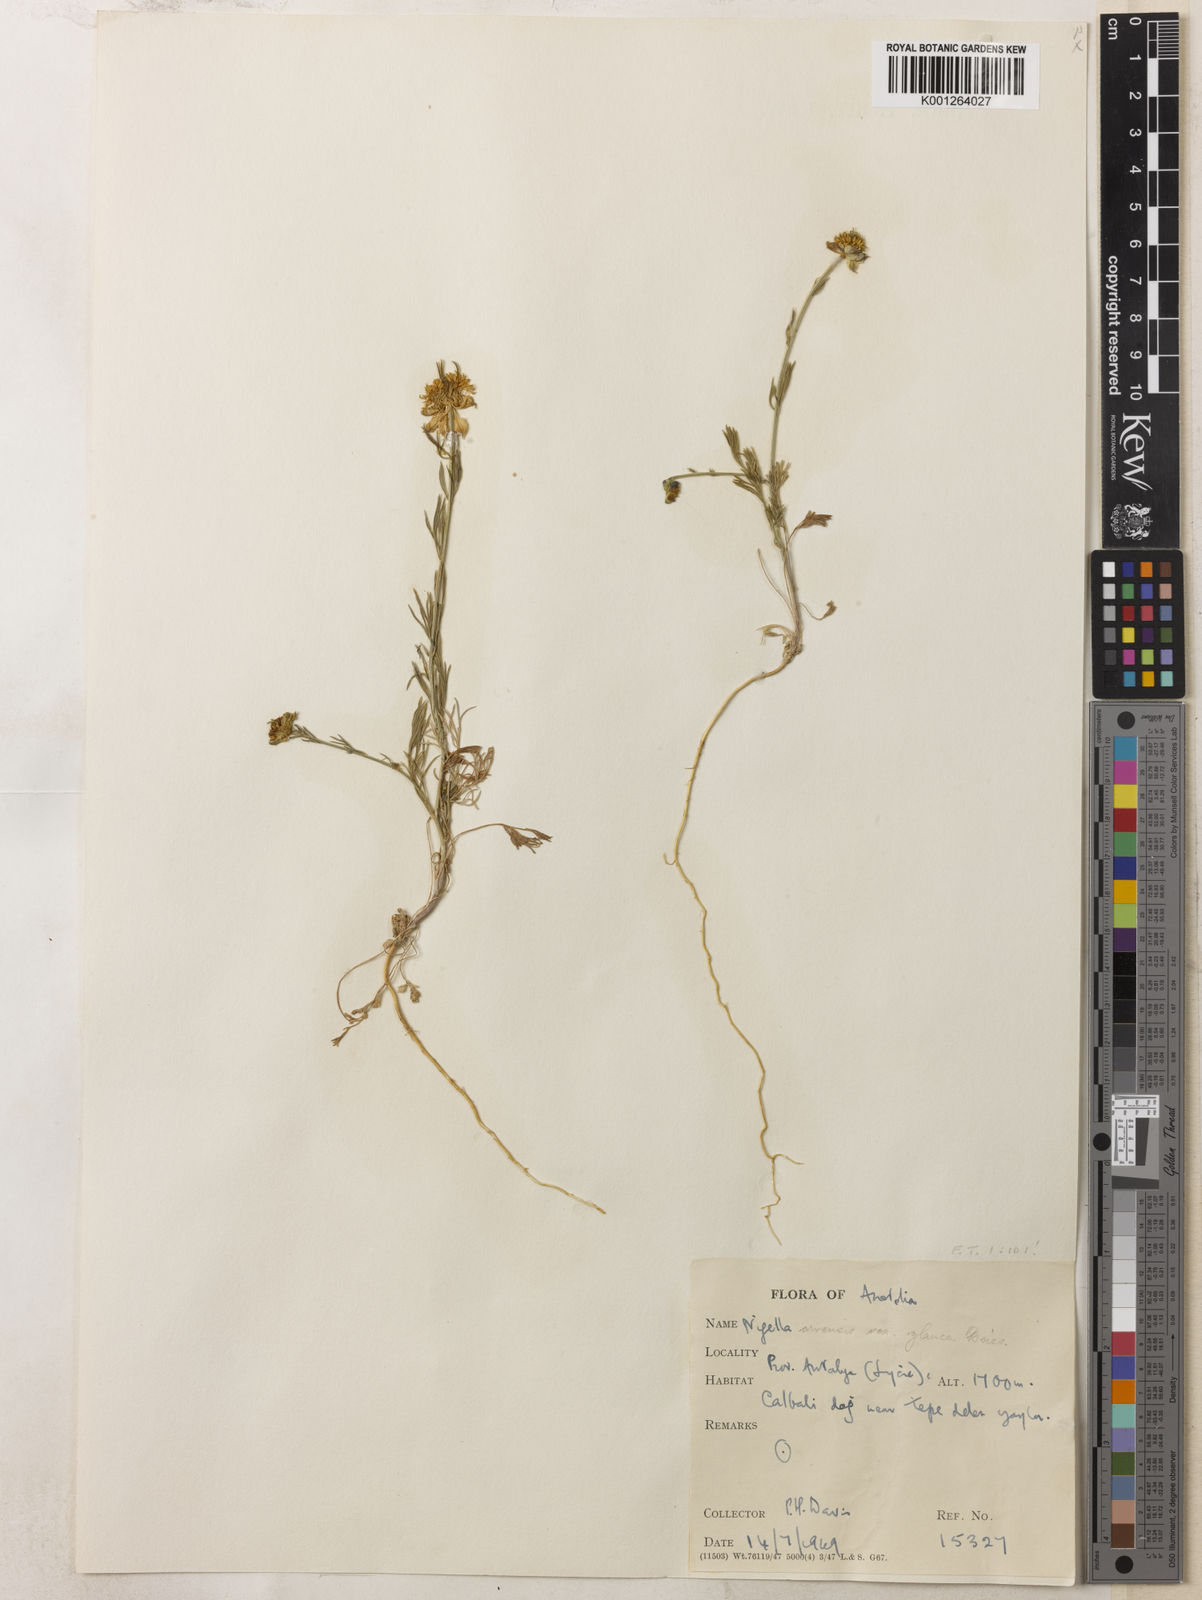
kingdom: Plantae
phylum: Tracheophyta
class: Magnoliopsida
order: Ranunculales
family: Ranunculaceae
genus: Nigella
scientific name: Nigella arvensis
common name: Wild fennel-flower
